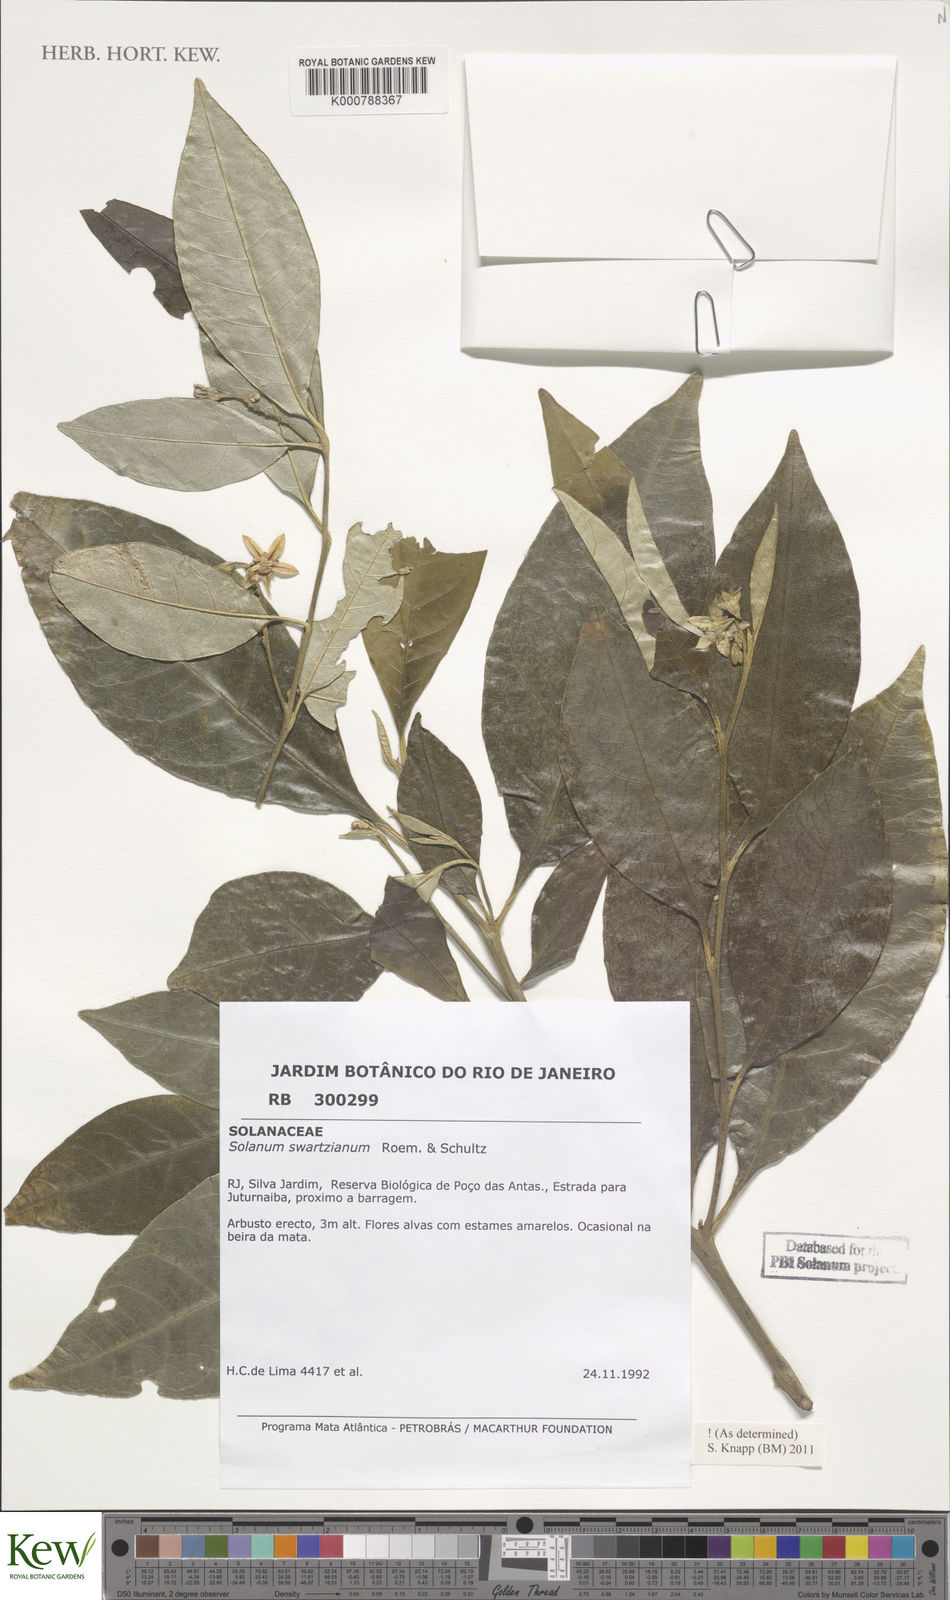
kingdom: Plantae
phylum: Tracheophyta
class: Magnoliopsida
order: Solanales
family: Solanaceae
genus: Solanum
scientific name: Solanum swartzianum
